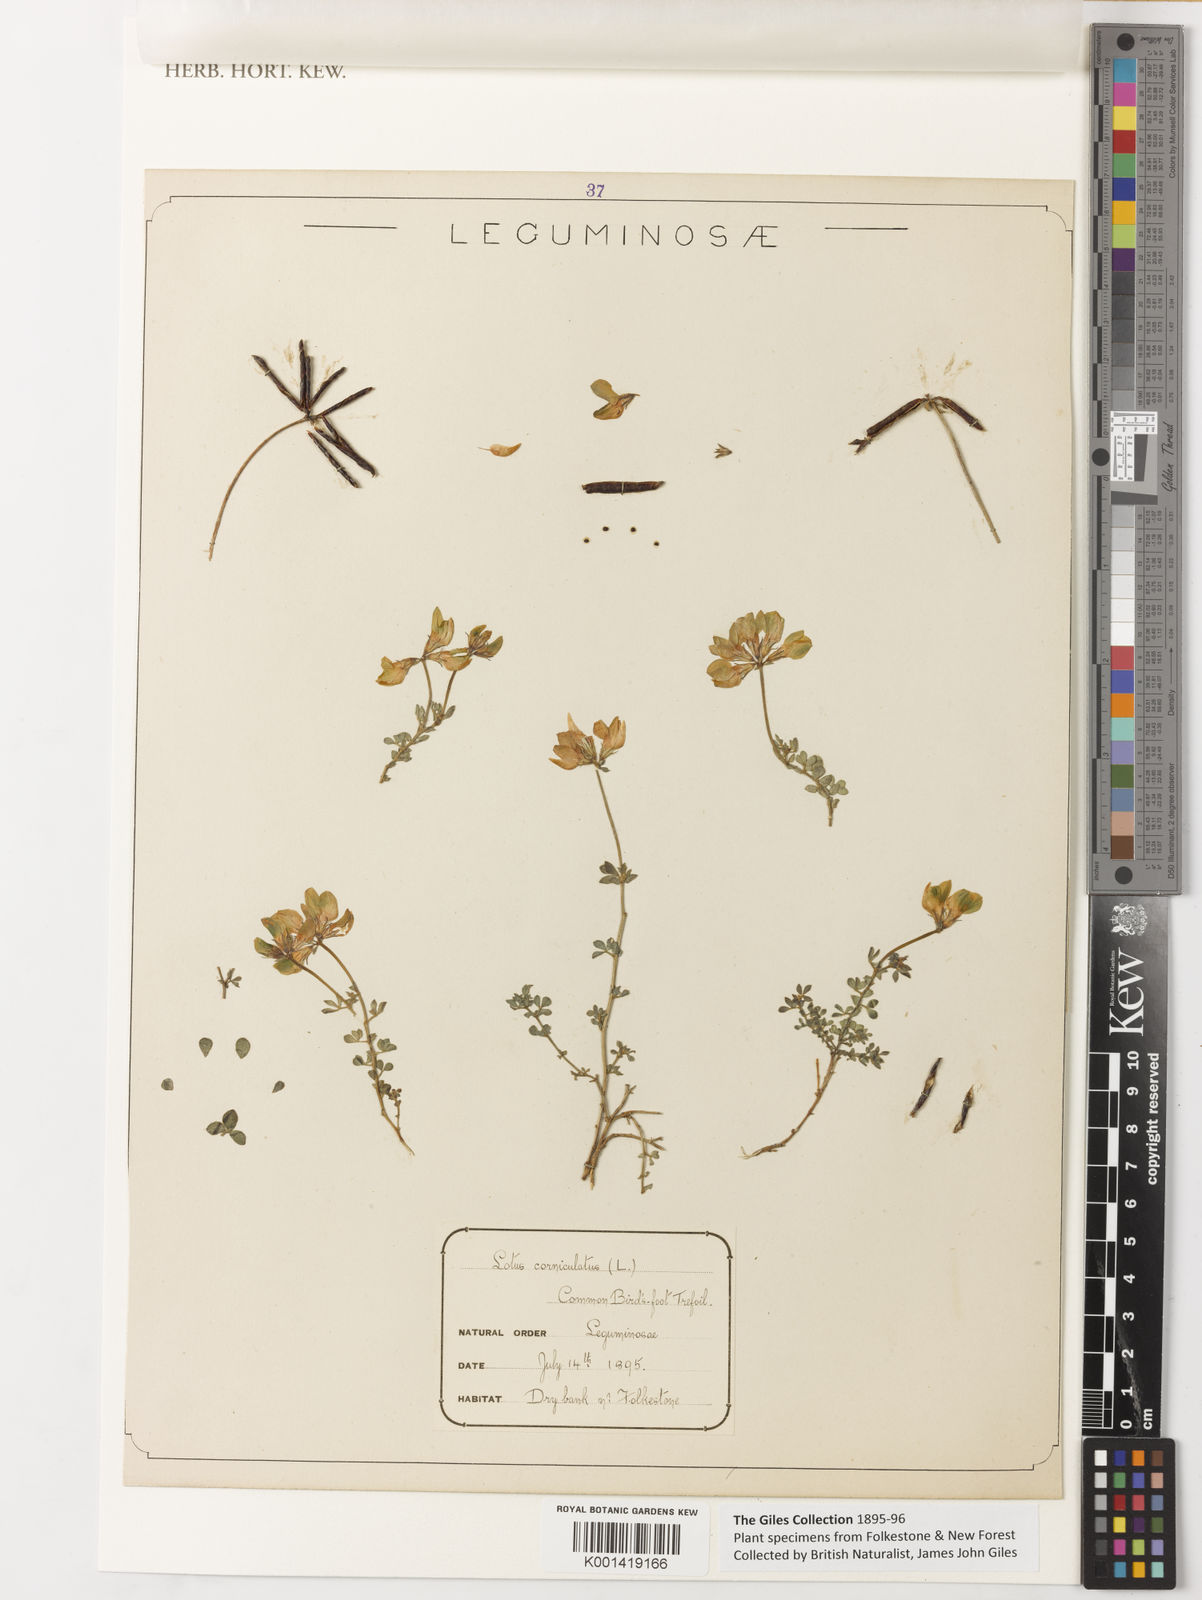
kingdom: Plantae
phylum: Tracheophyta
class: Magnoliopsida
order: Fabales
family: Fabaceae
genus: Lotus
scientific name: Lotus corniculatus
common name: Common bird's-foot-trefoil
